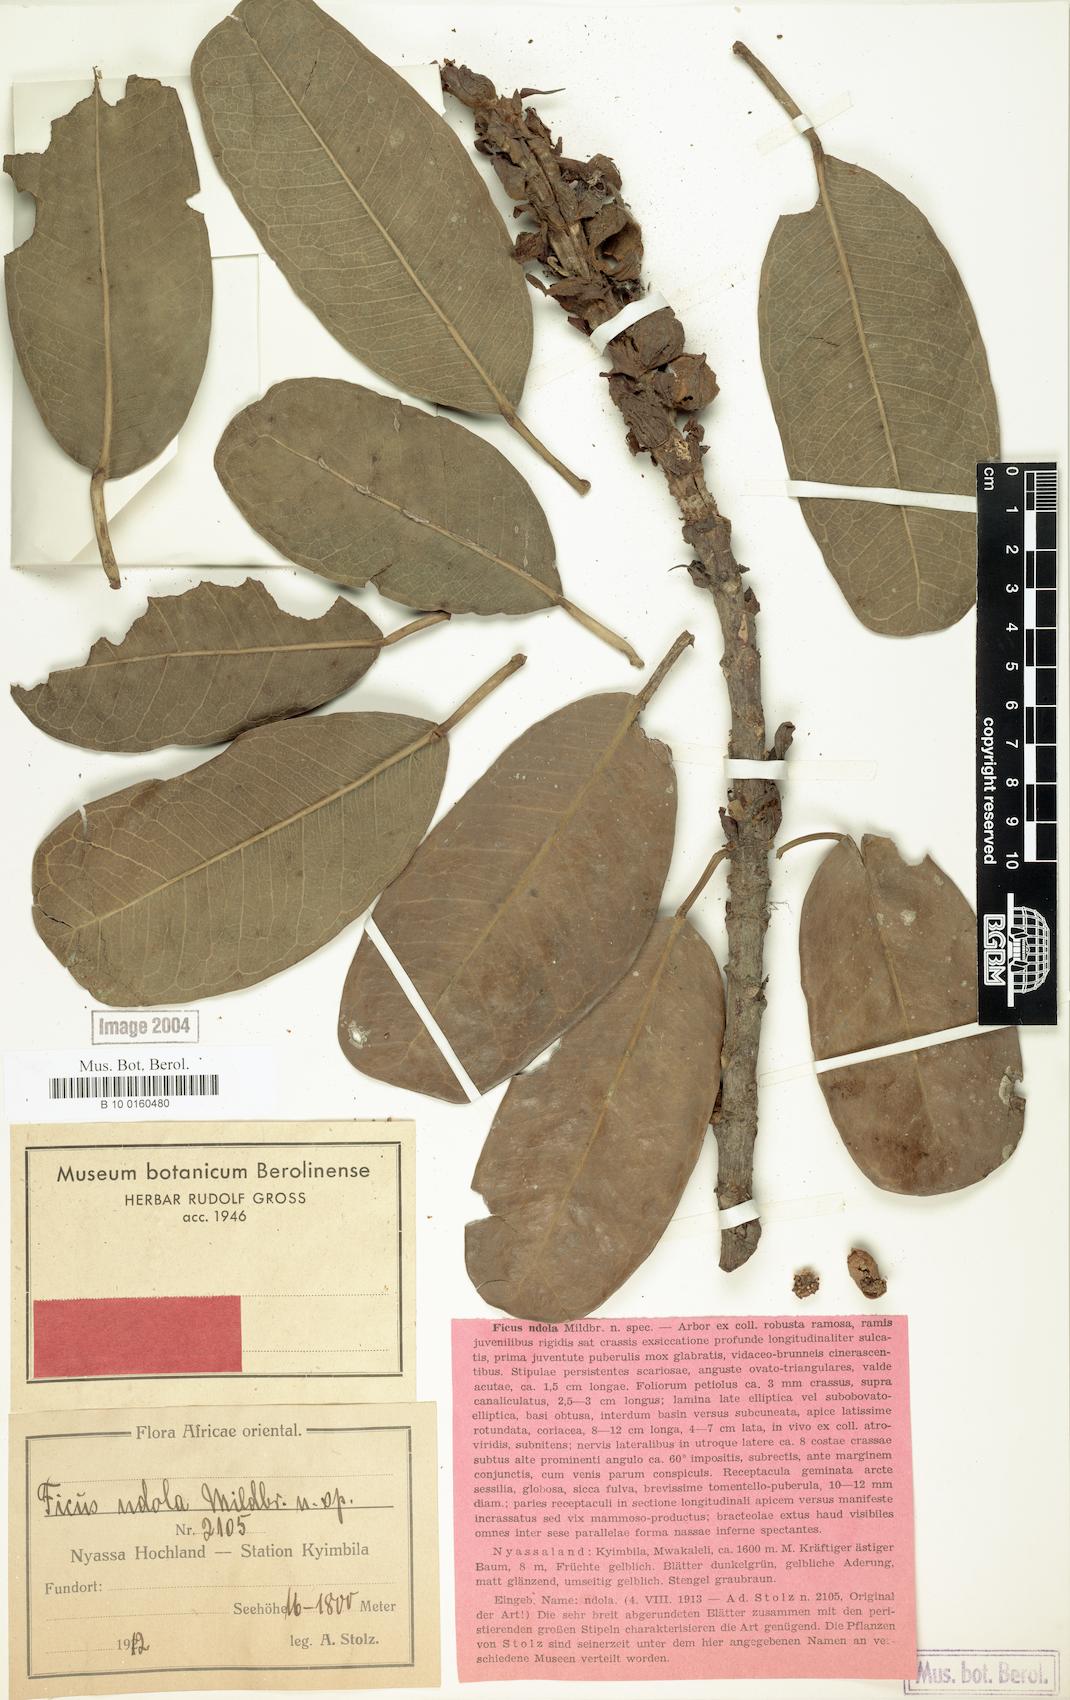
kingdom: Plantae
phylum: Tracheophyta
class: Magnoliopsida
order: Rosales
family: Moraceae
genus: Ficus
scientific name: Ficus amadiensis
